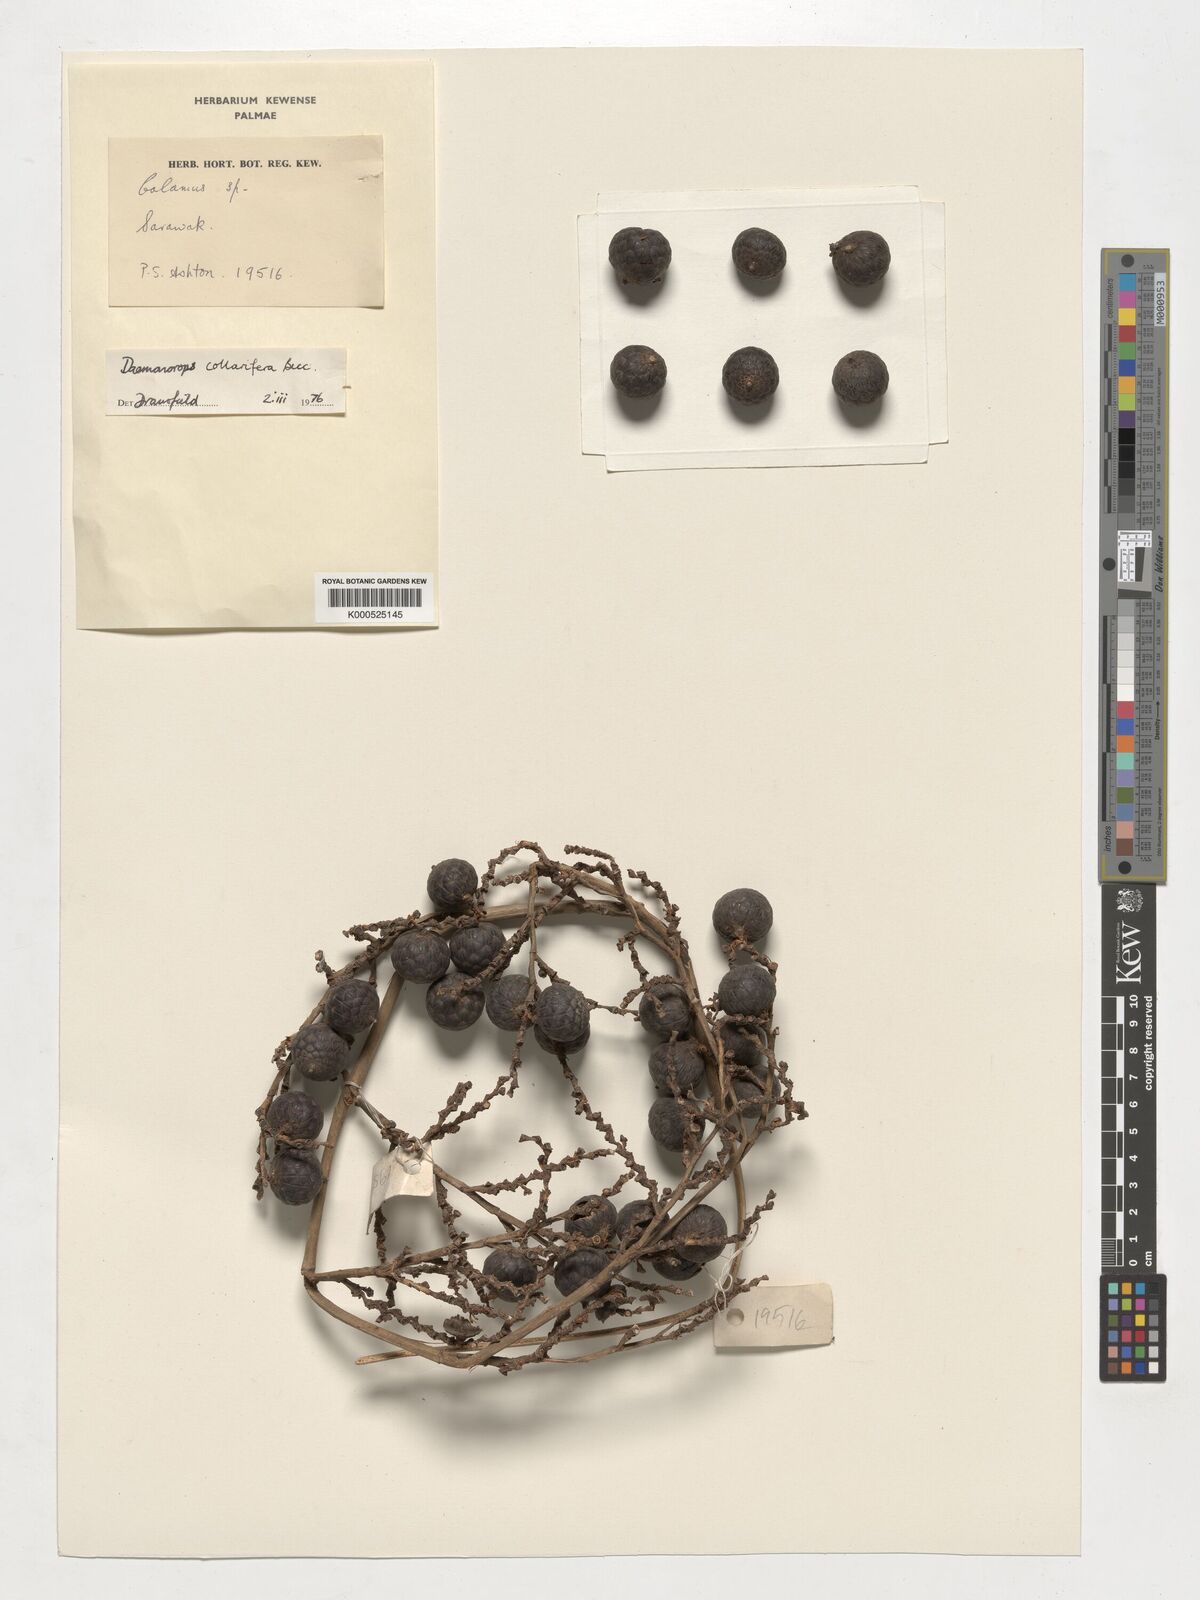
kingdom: Plantae
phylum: Tracheophyta
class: Liliopsida
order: Arecales
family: Arecaceae
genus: Calamus
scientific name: Calamus geniculatus
